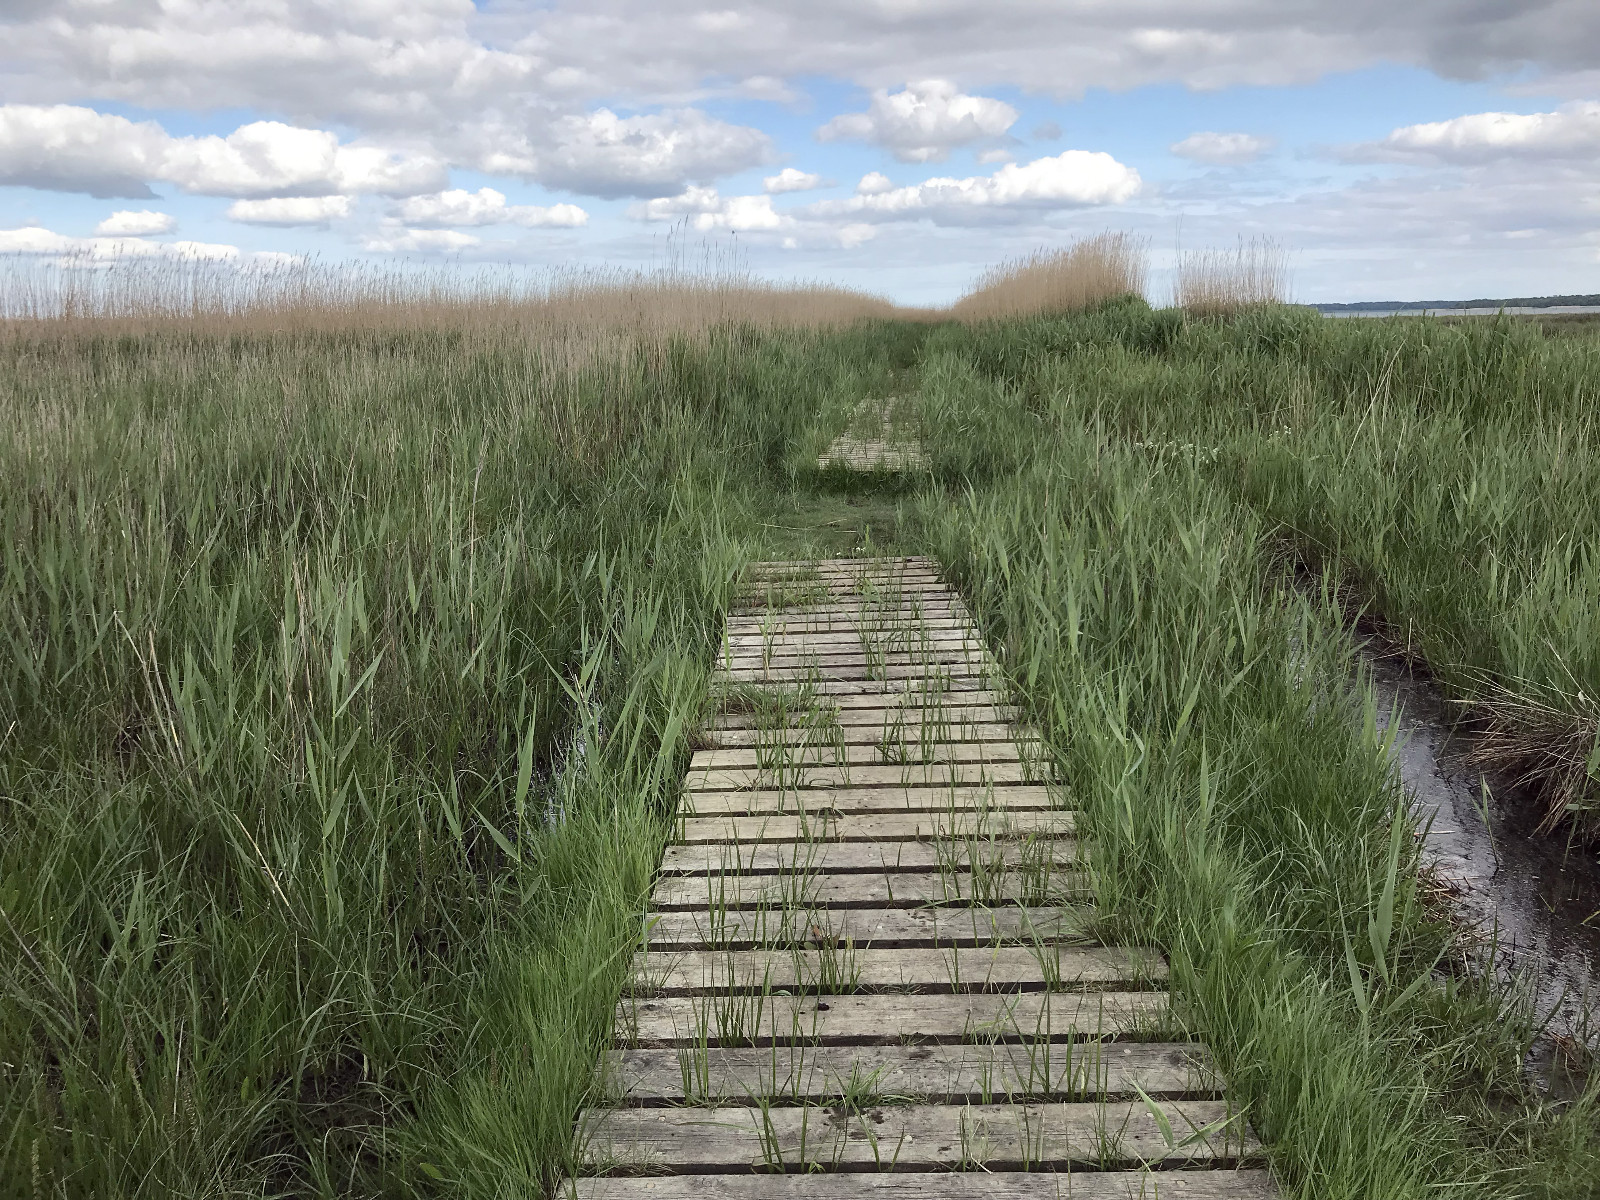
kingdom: Fungi
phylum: Basidiomycota
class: Pucciniomycetes
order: Pucciniales
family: Pucciniaceae
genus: Puccinia
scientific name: Puccinia phragmitis
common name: tagrør-tvecellerust
